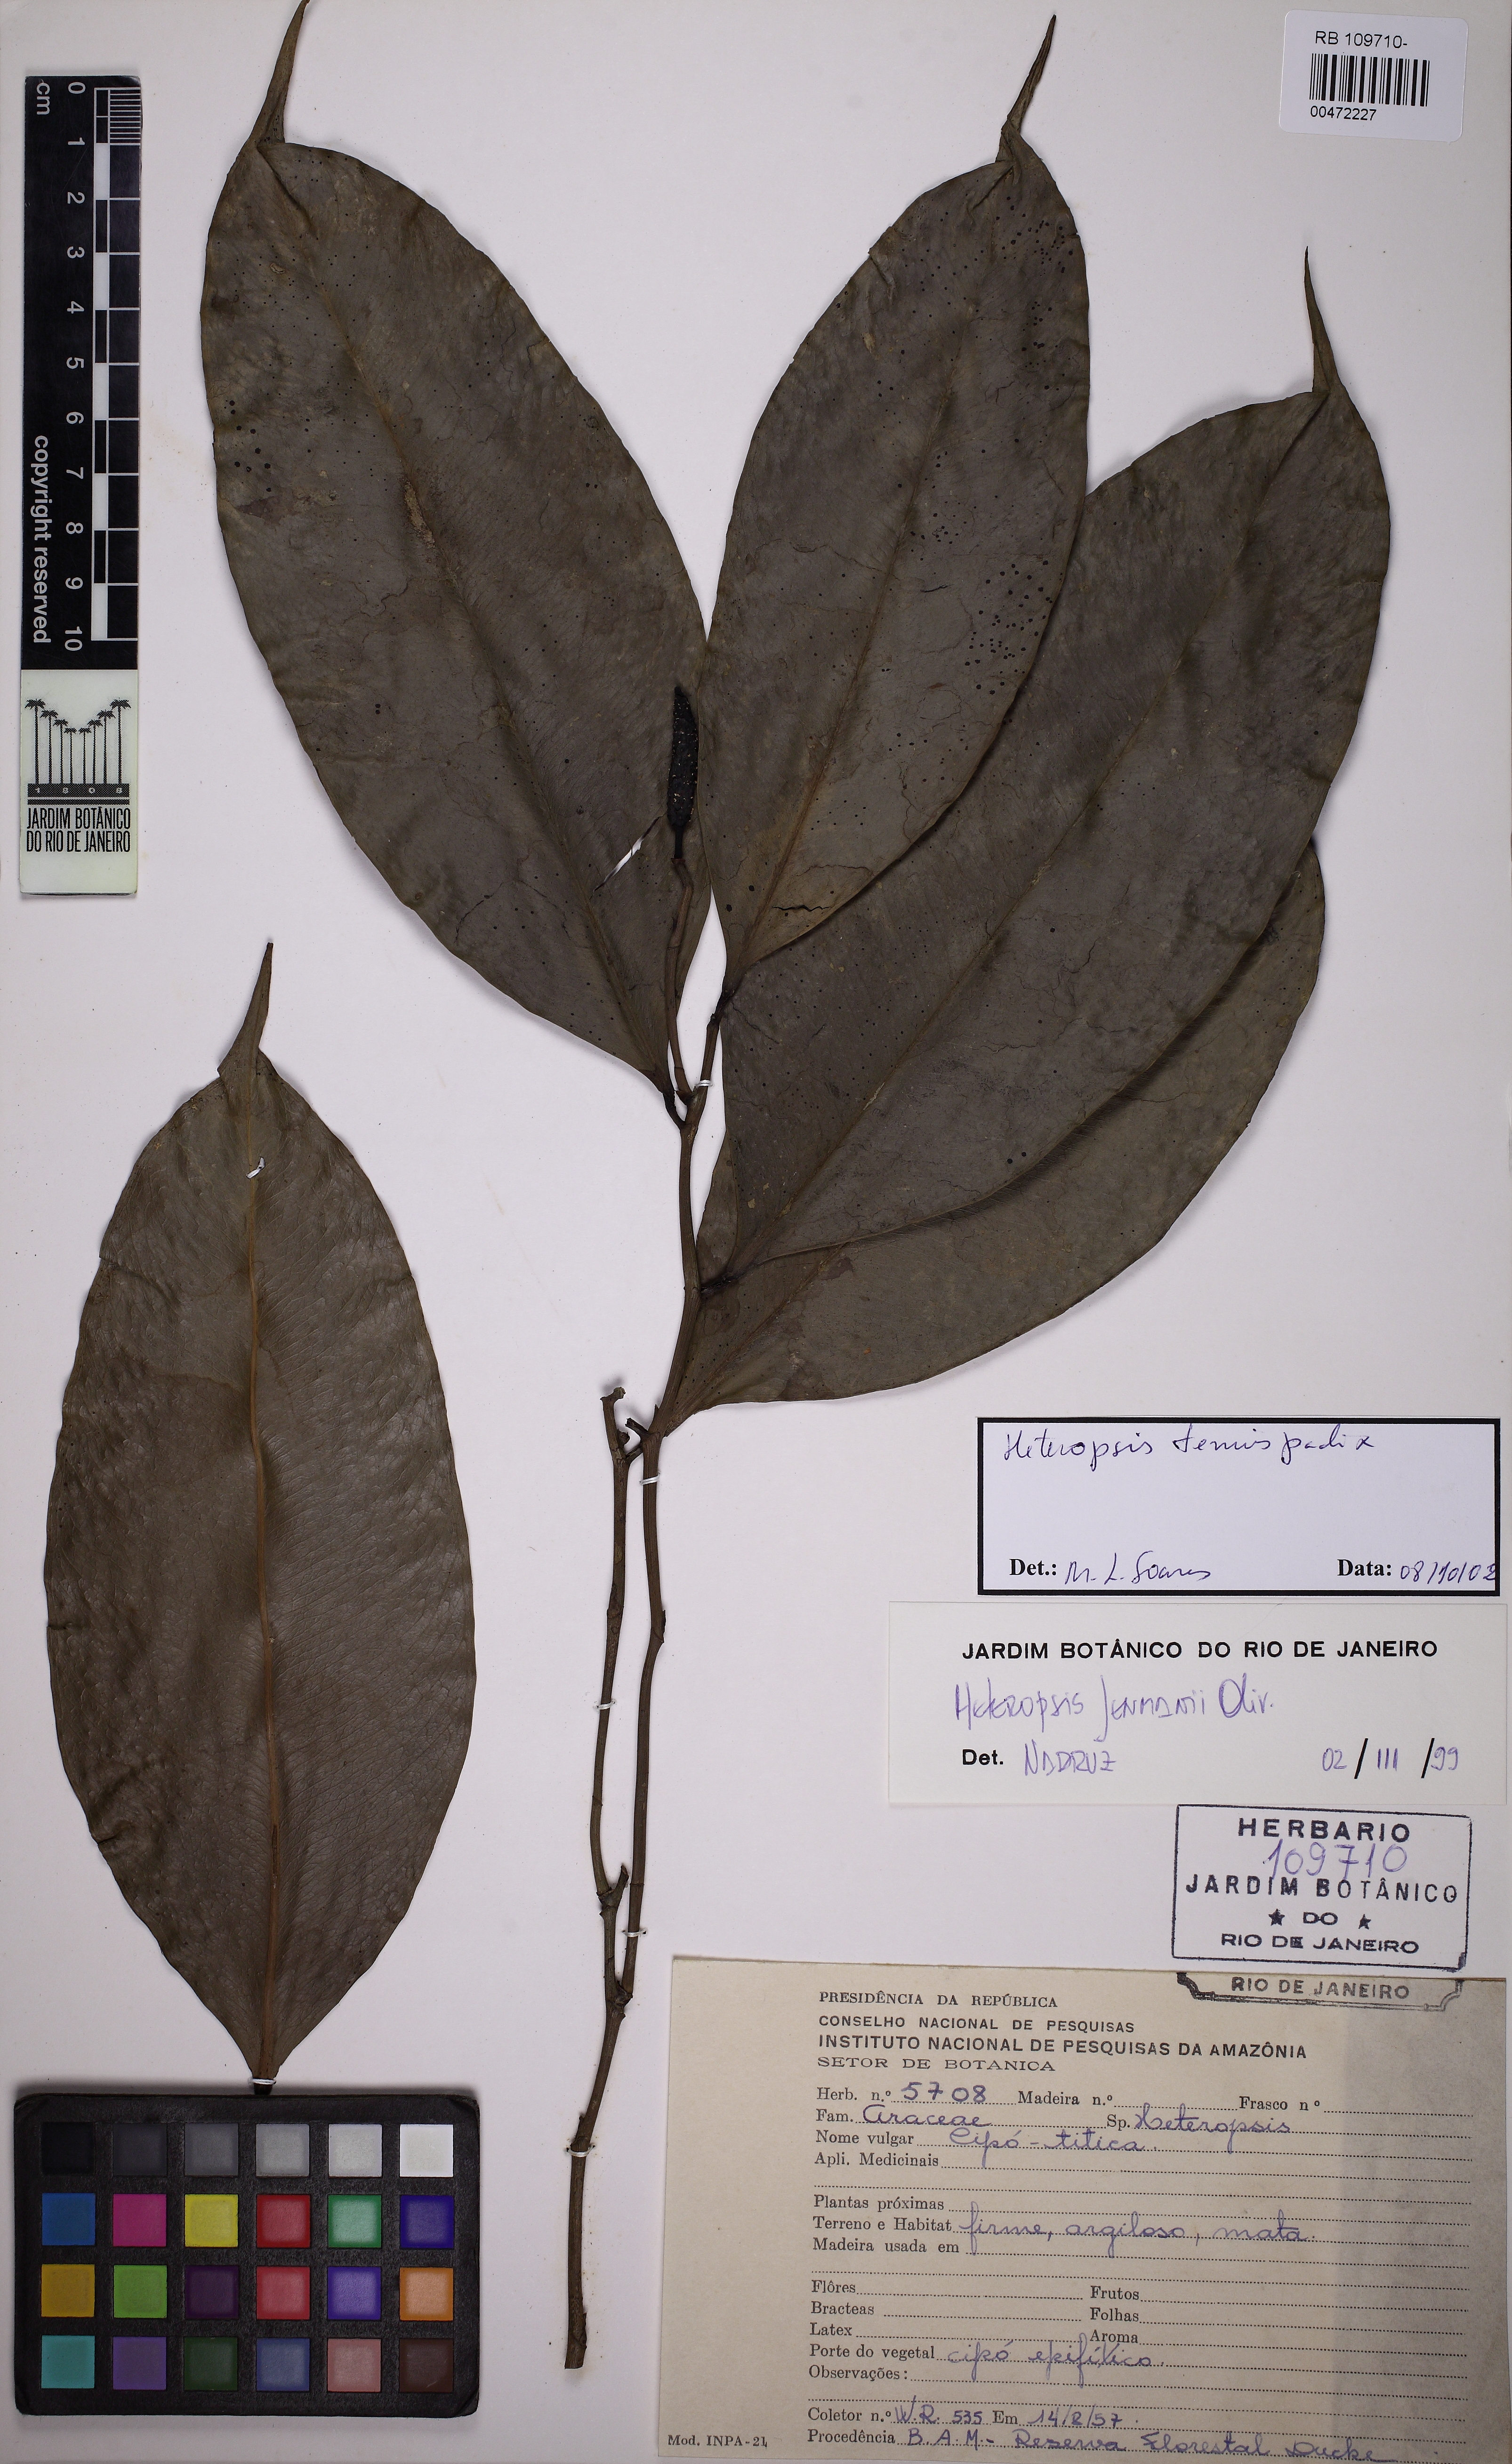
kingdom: Plantae
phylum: Tracheophyta
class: Liliopsida
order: Alismatales
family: Araceae
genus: Heteropsis
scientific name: Heteropsis tenuispadix
